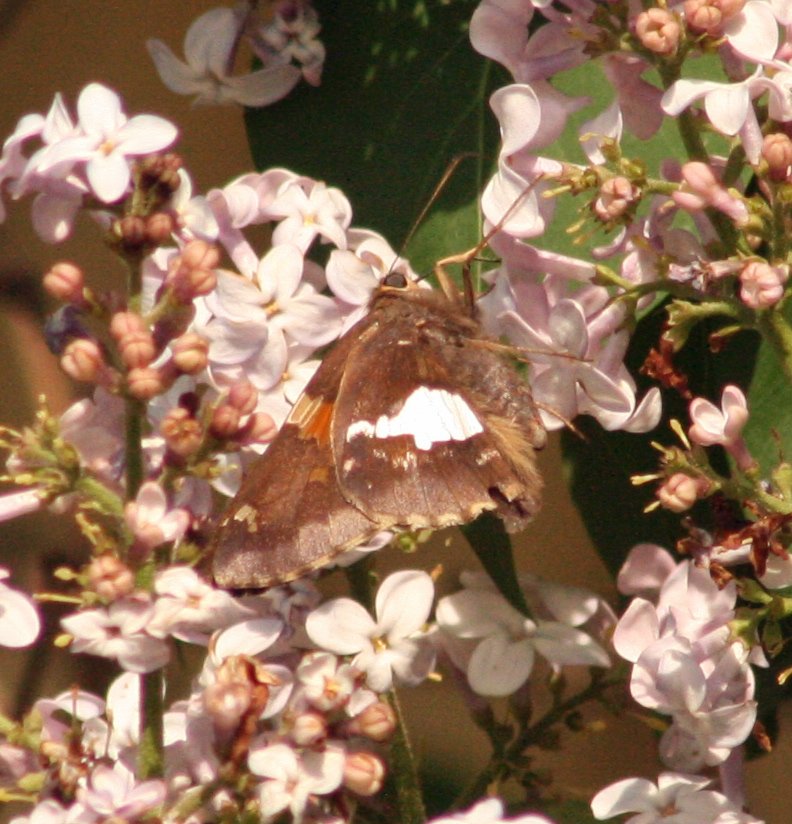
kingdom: Animalia
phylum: Arthropoda
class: Insecta
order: Lepidoptera
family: Hesperiidae
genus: Epargyreus
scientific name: Epargyreus clarus
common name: Silver-spotted Skipper
